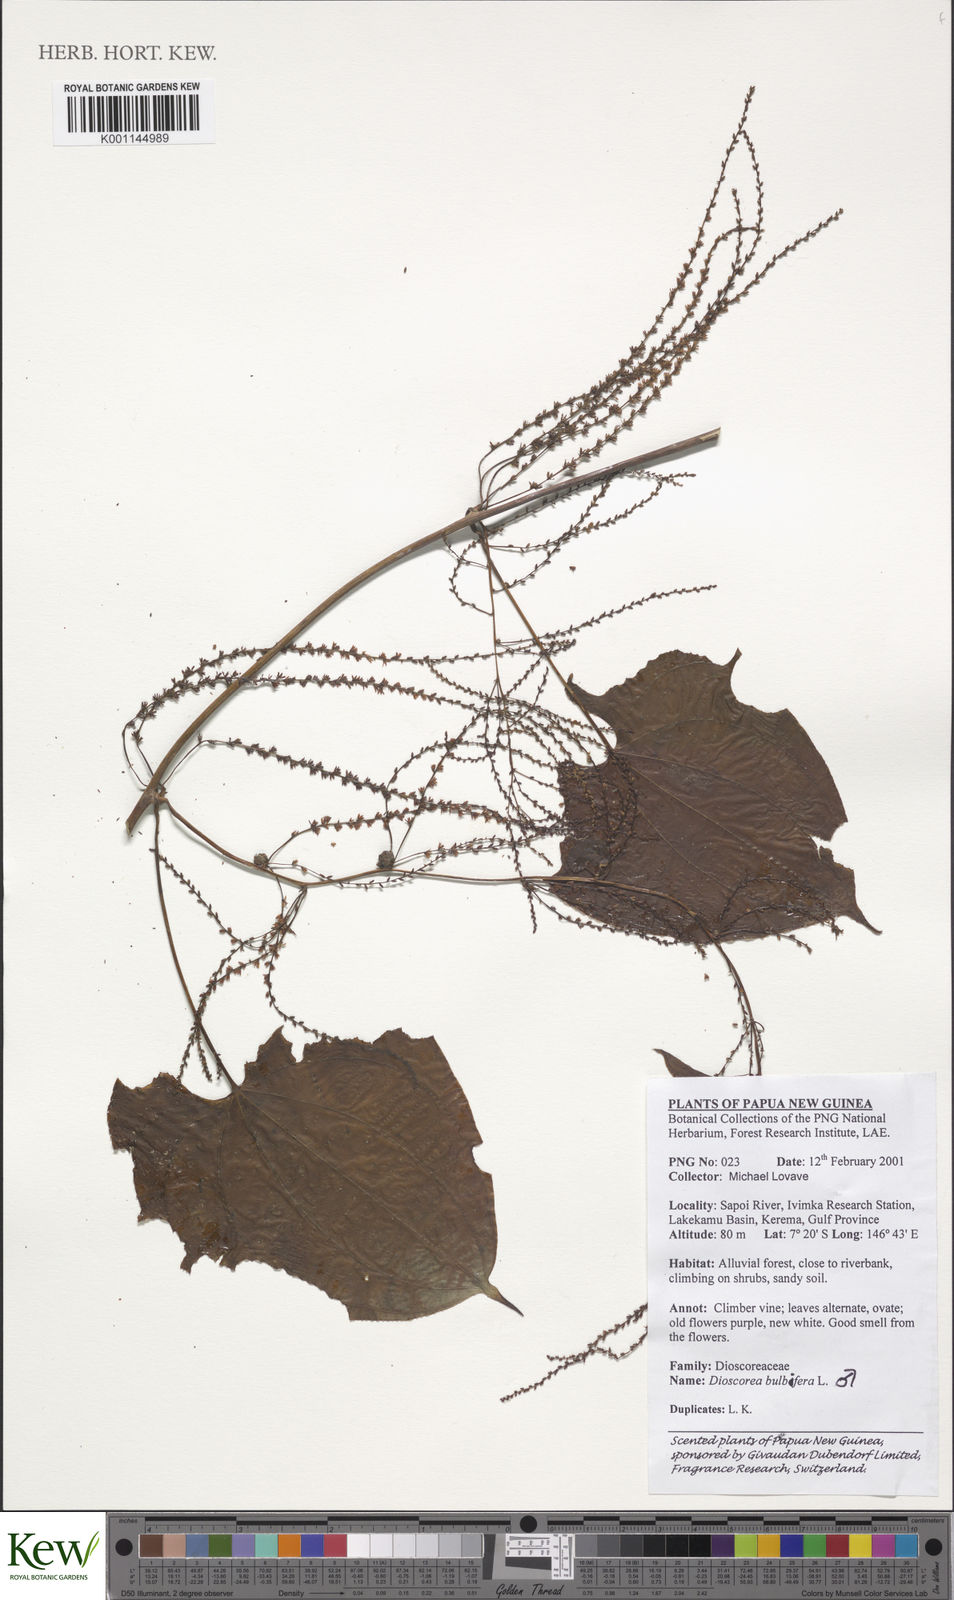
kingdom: Plantae
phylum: Tracheophyta
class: Liliopsida
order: Dioscoreales
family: Dioscoreaceae
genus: Dioscorea
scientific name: Dioscorea bulbifera
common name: Air yam
